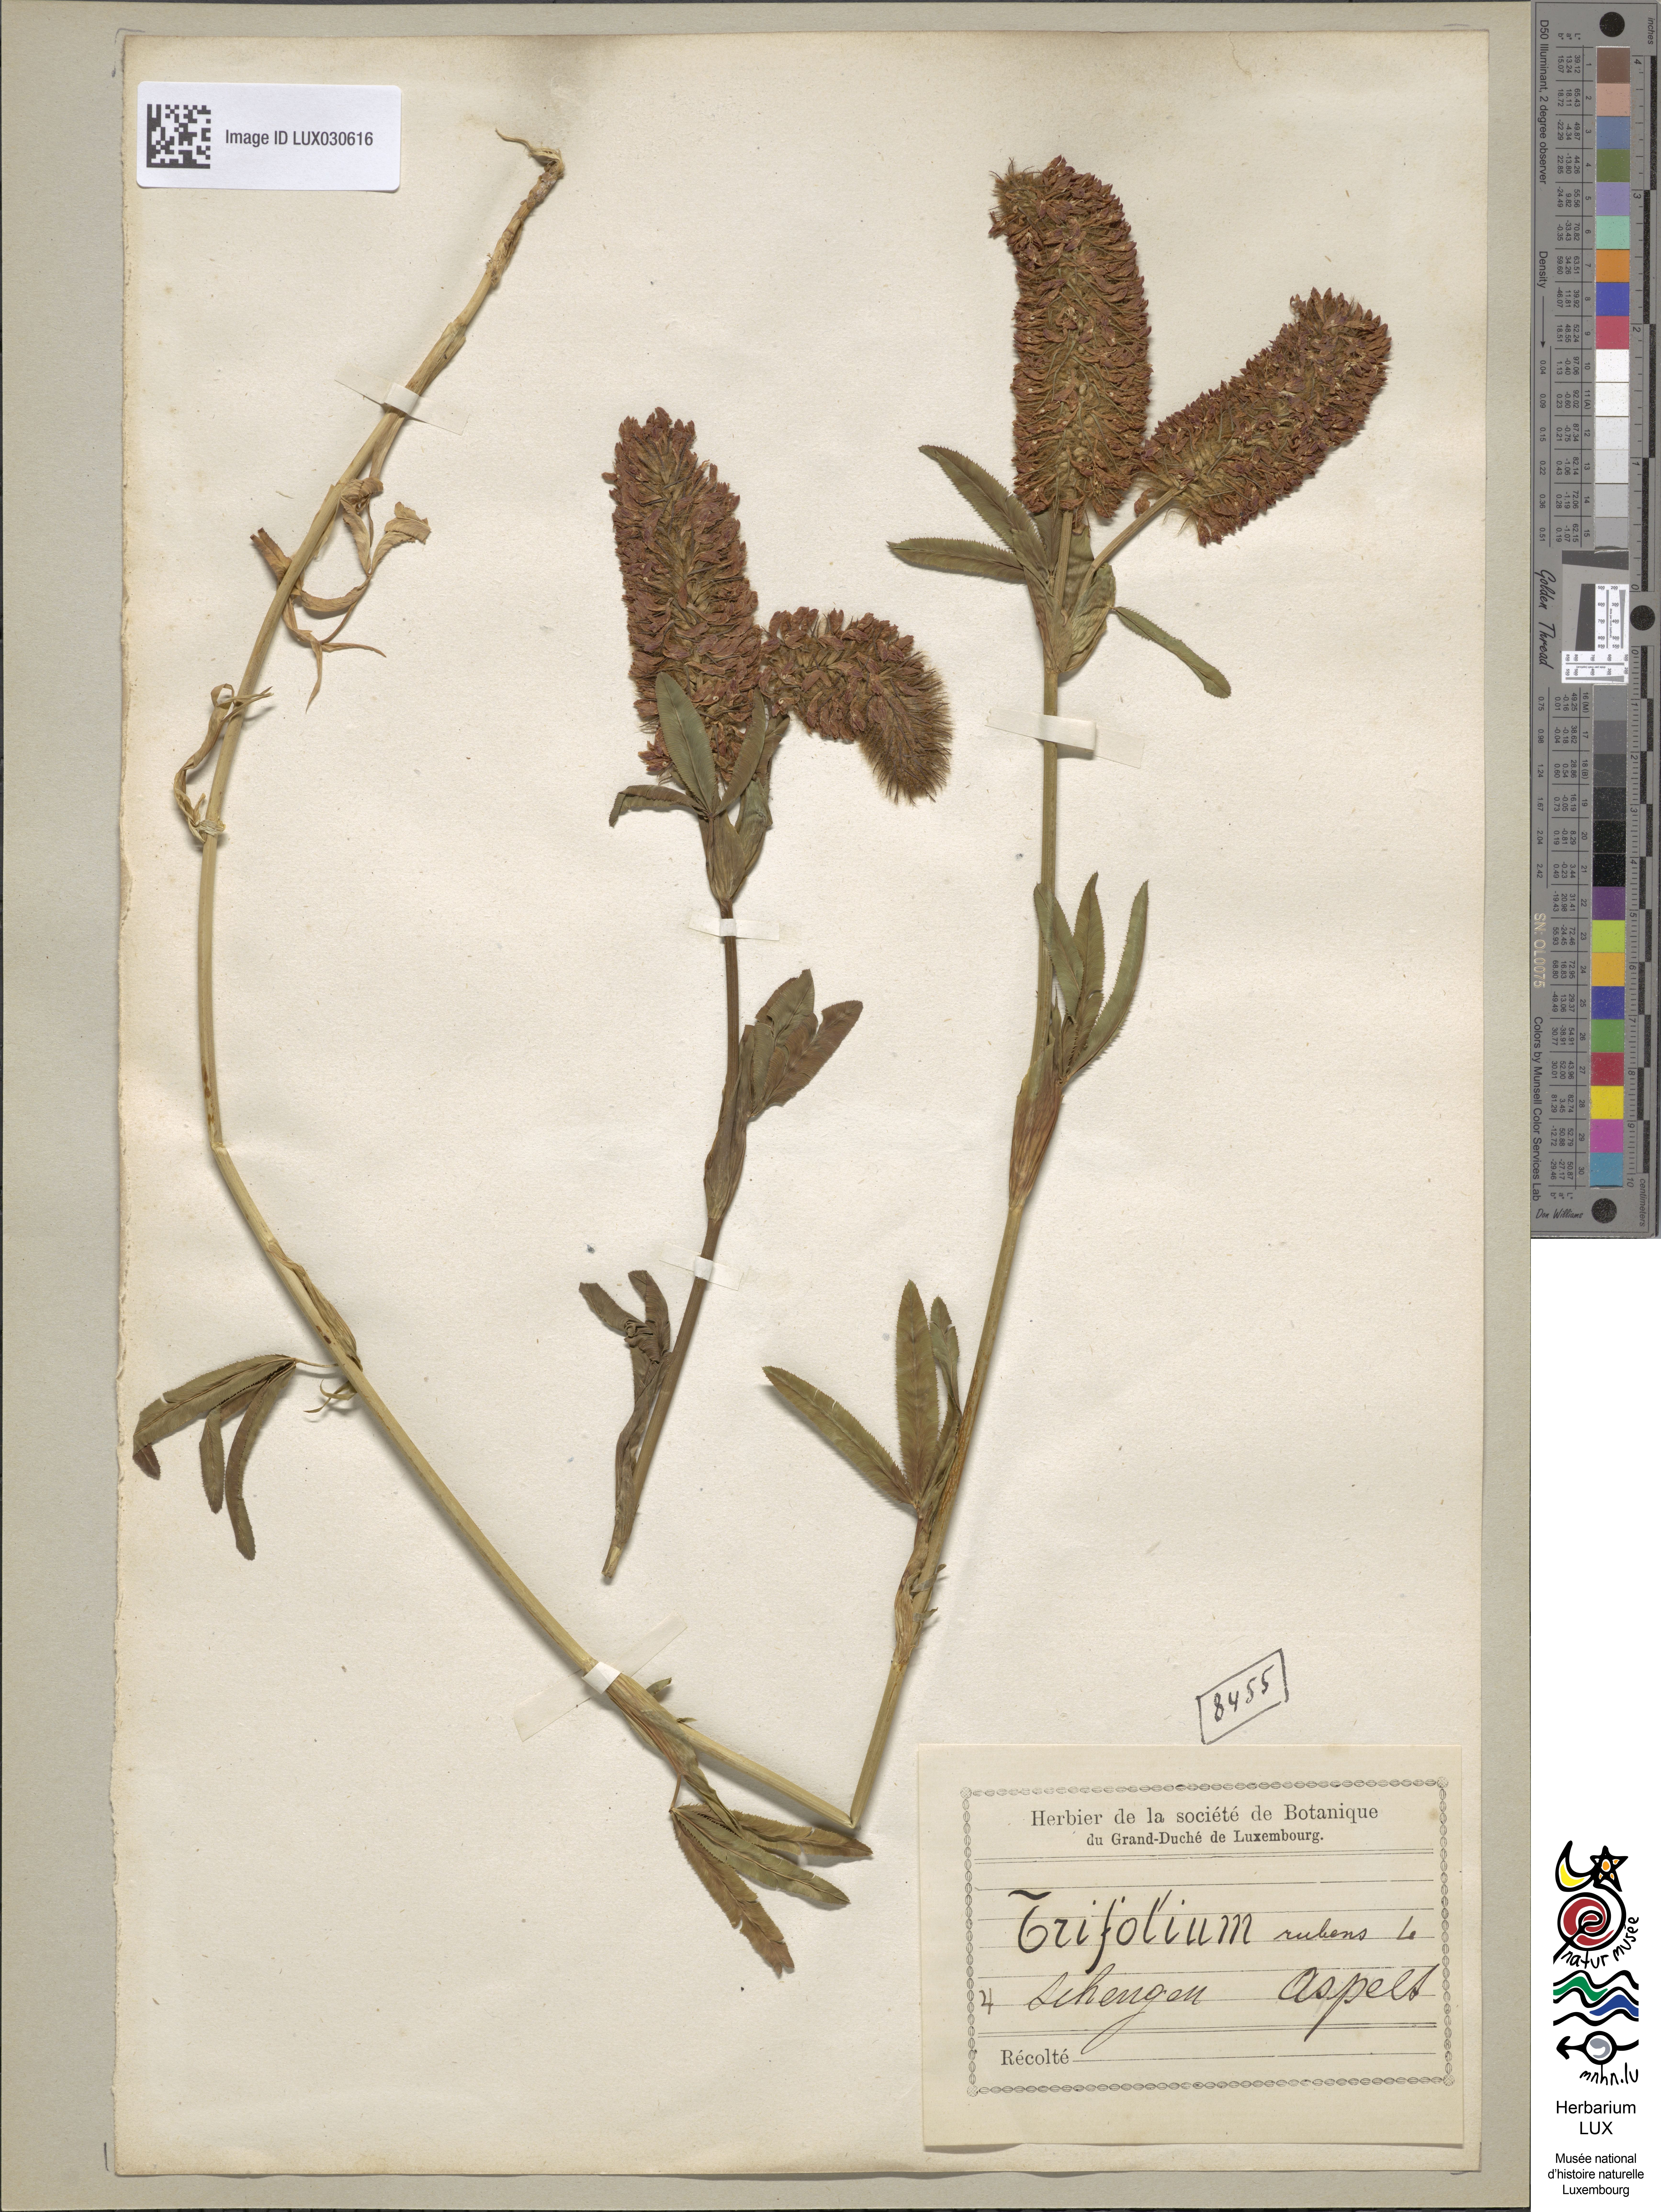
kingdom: Plantae
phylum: Tracheophyta
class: Magnoliopsida
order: Fabales
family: Fabaceae
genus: Trifolium
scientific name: Trifolium rubens
